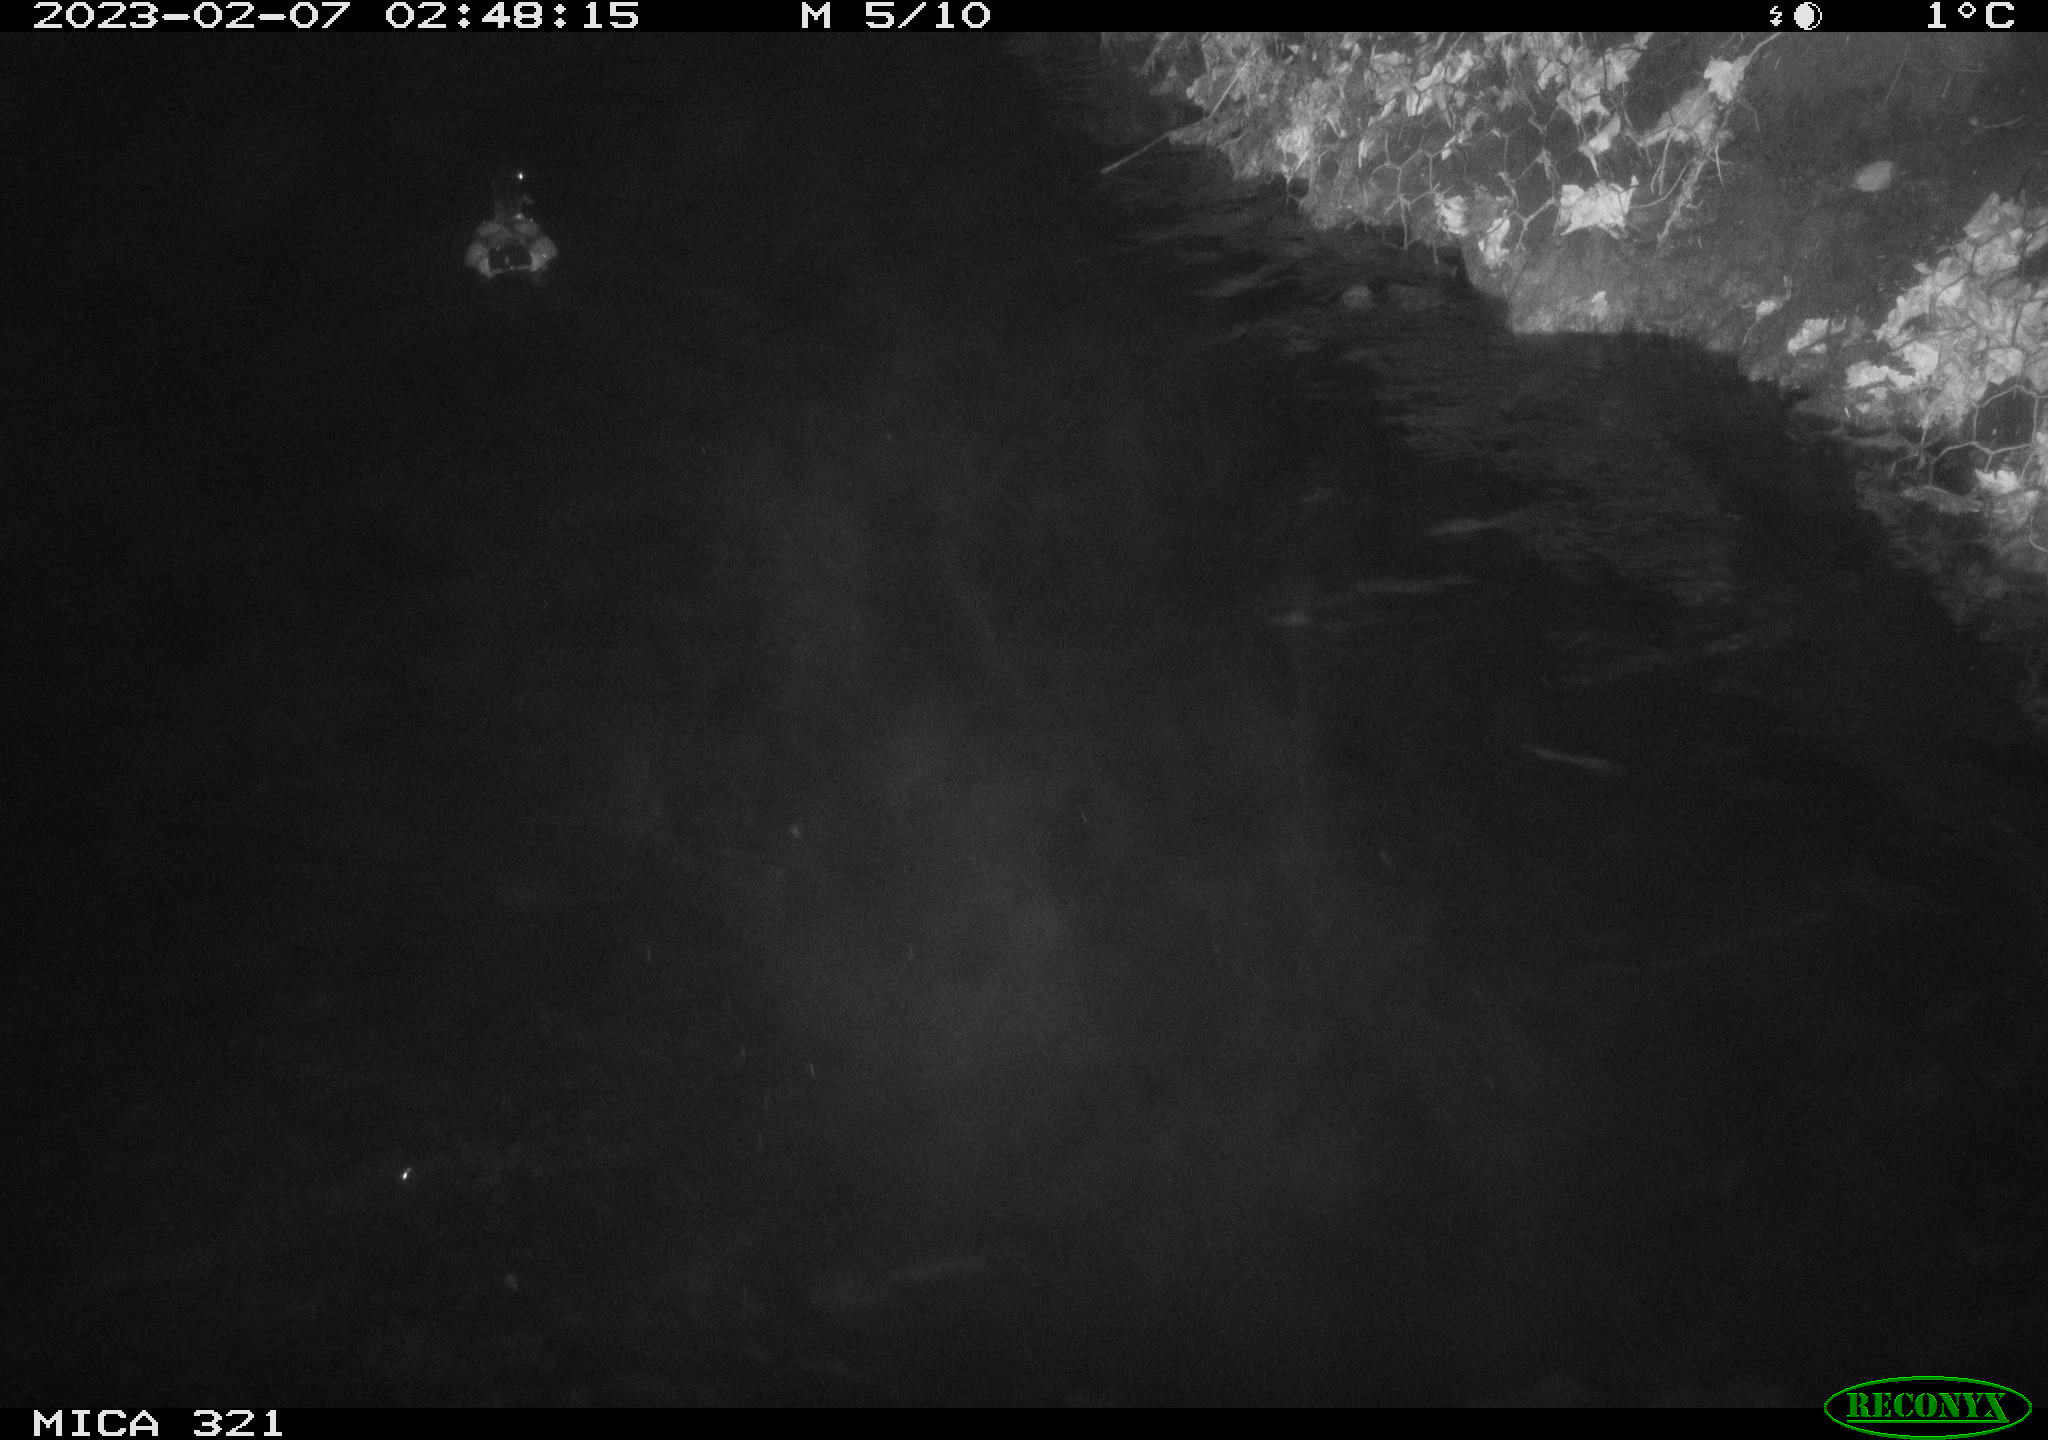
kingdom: Animalia
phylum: Chordata
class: Aves
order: Anseriformes
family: Anatidae
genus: Anas
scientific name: Anas
